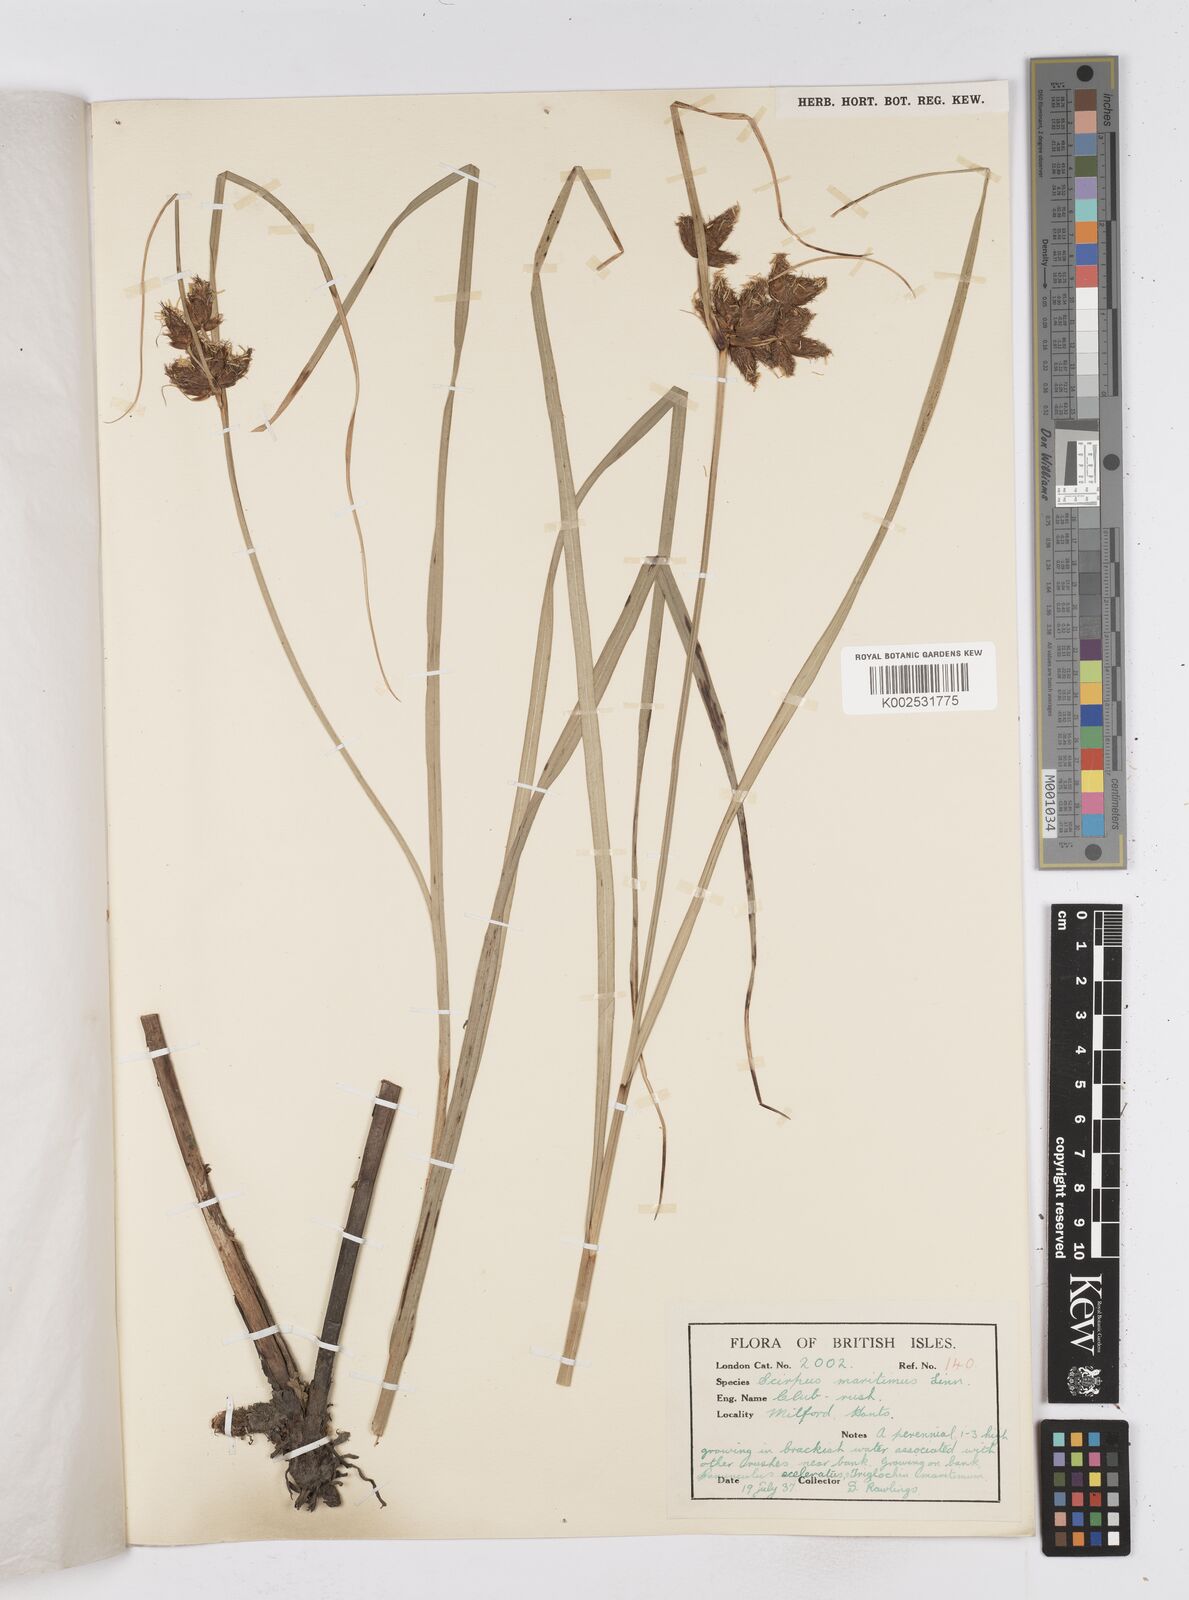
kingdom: Plantae
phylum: Tracheophyta
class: Liliopsida
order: Poales
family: Cyperaceae
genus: Bolboschoenus
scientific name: Bolboschoenus maritimus
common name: Sea club-rush
